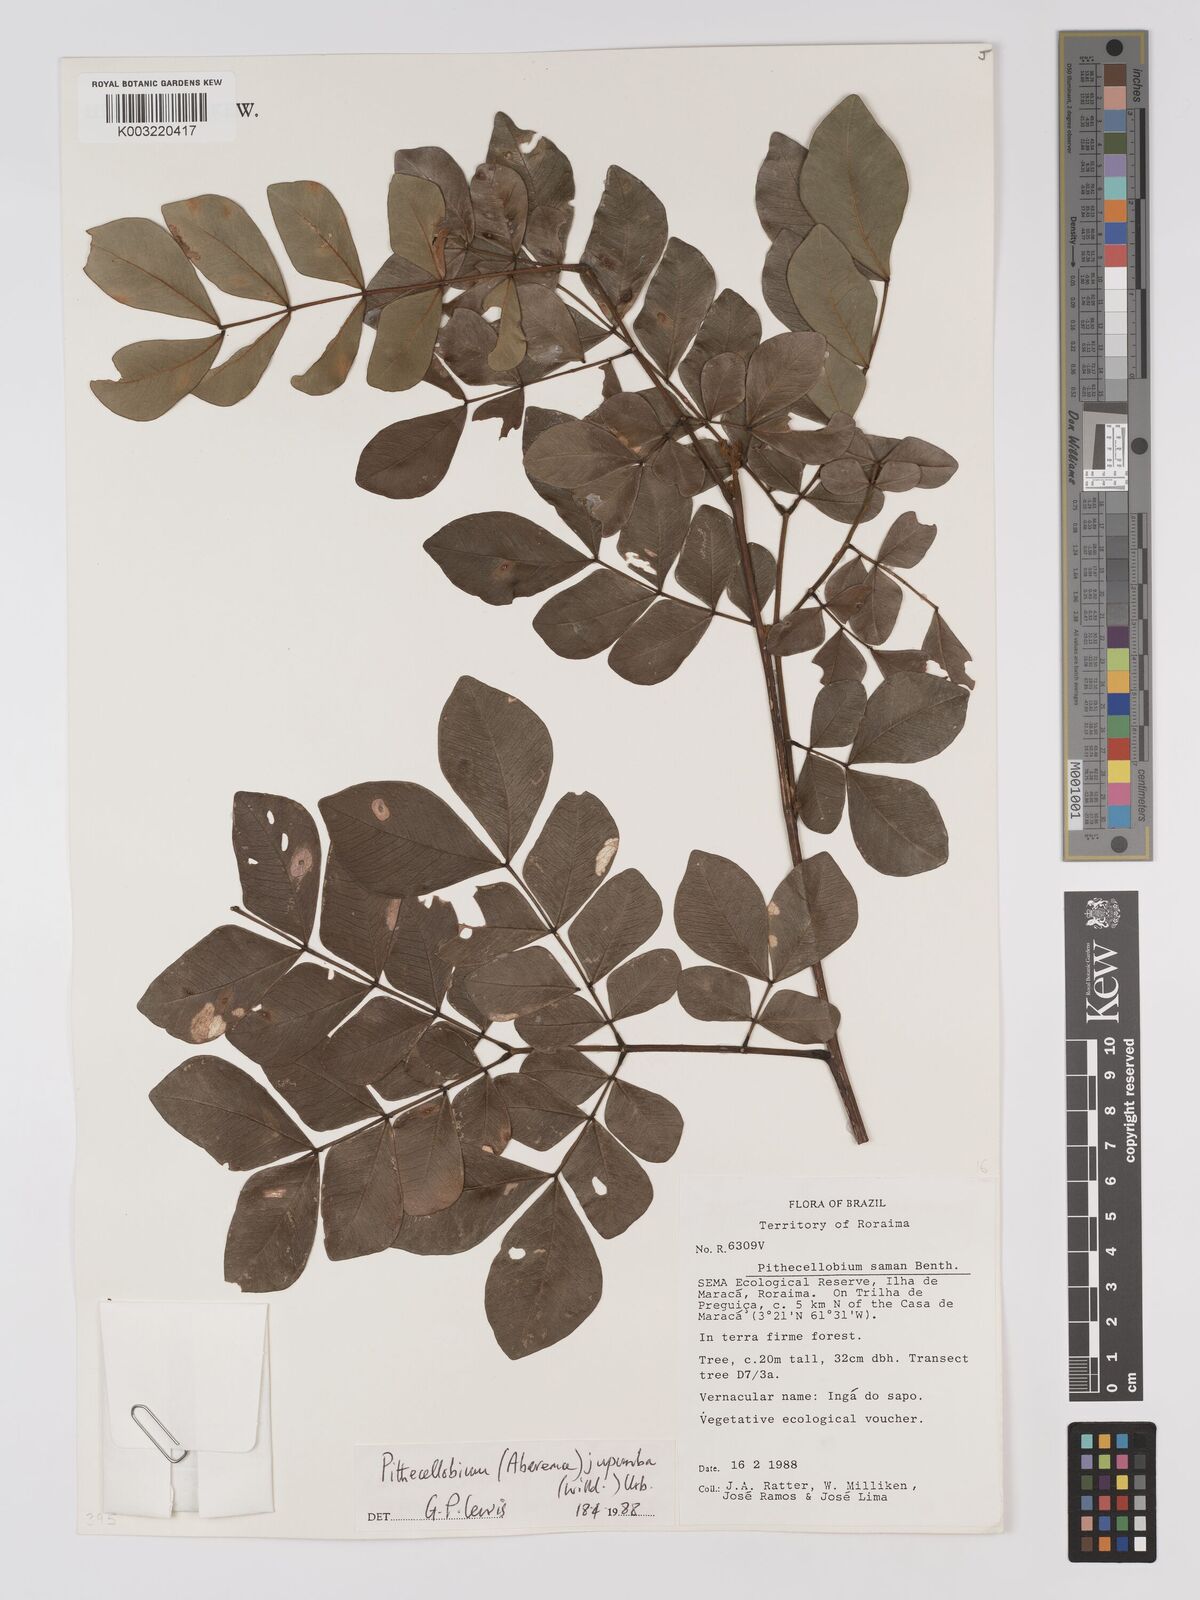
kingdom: Plantae
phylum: Tracheophyta
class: Magnoliopsida
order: Fabales
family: Fabaceae
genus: Jupunba
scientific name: Jupunba trapezifolia
